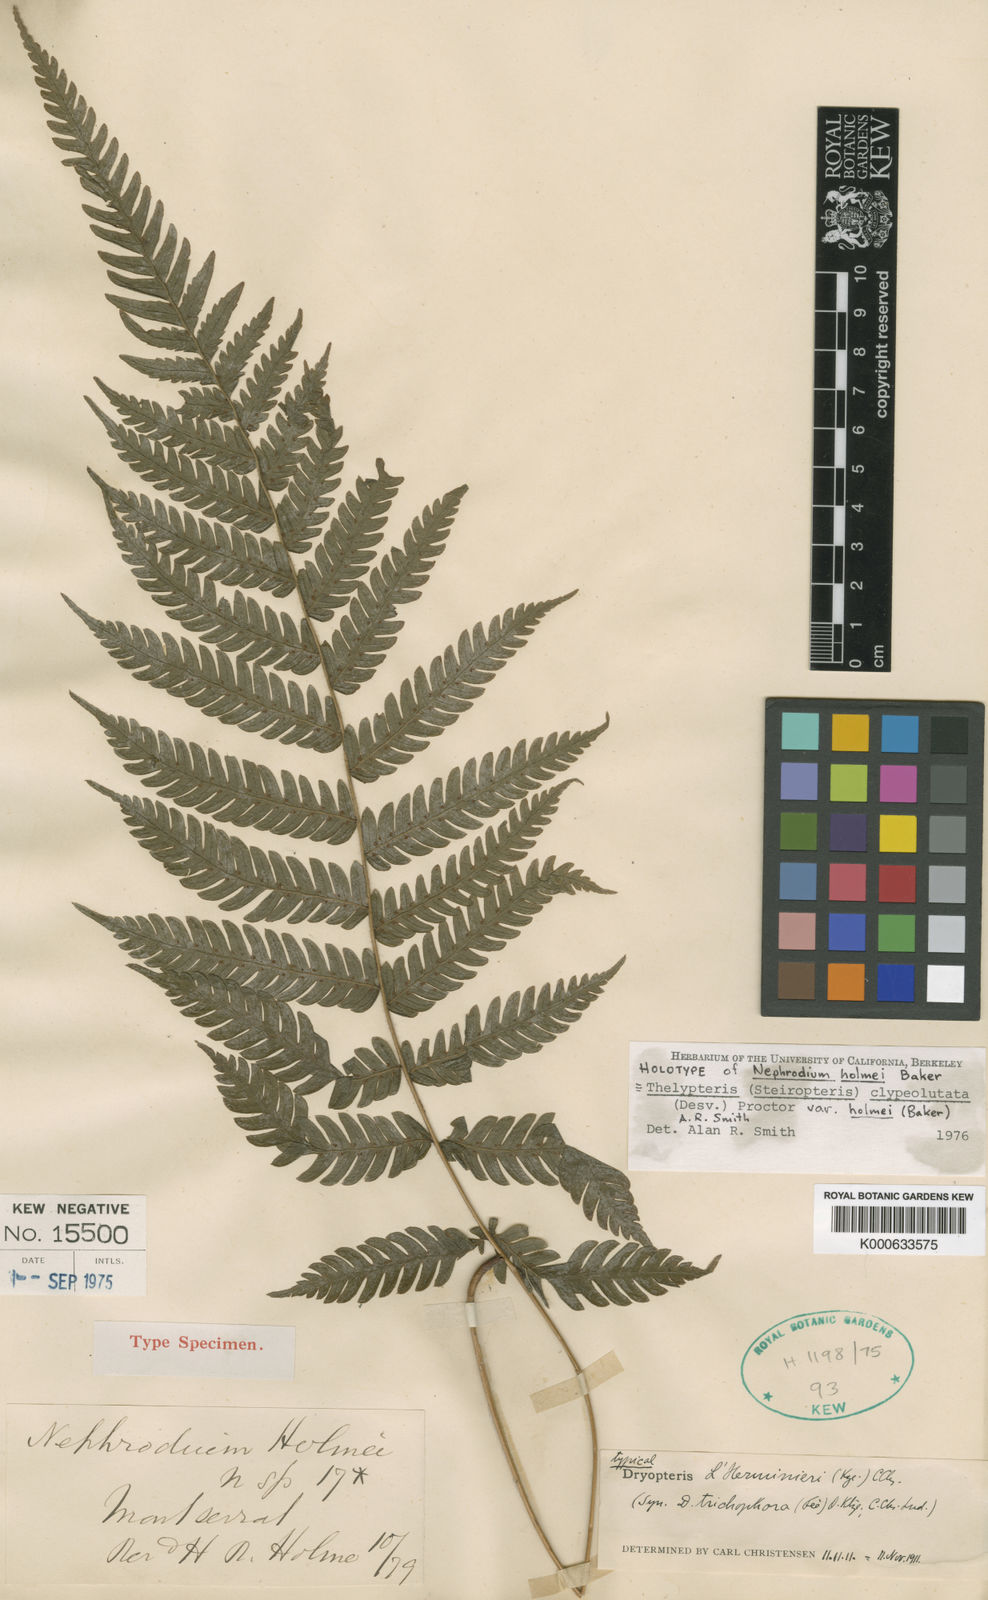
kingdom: Plantae
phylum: Tracheophyta
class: Polypodiopsida
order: Polypodiales
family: Thelypteridaceae
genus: Steiropteris
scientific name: Steiropteris clypeolutata
